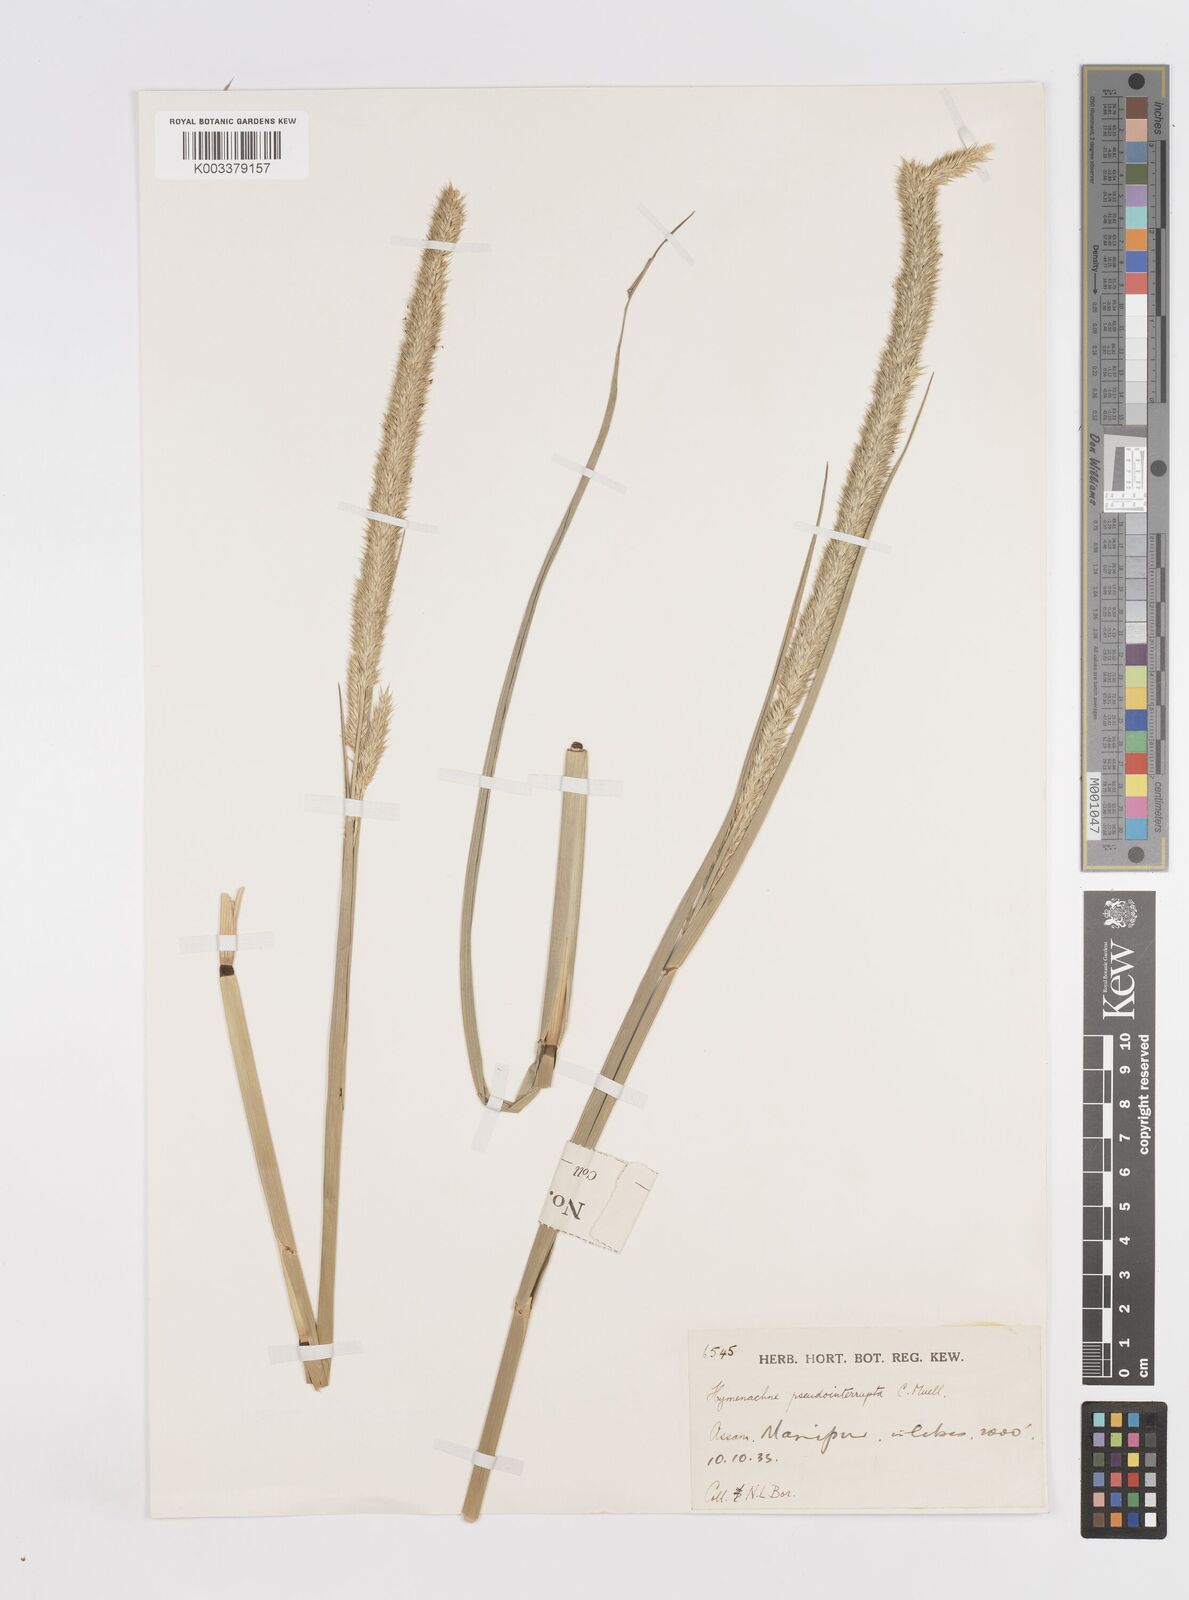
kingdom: Plantae
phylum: Tracheophyta
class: Liliopsida
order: Poales
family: Poaceae
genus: Hymenachne
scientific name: Hymenachne amplexicaulis
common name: Olive hymenachne
